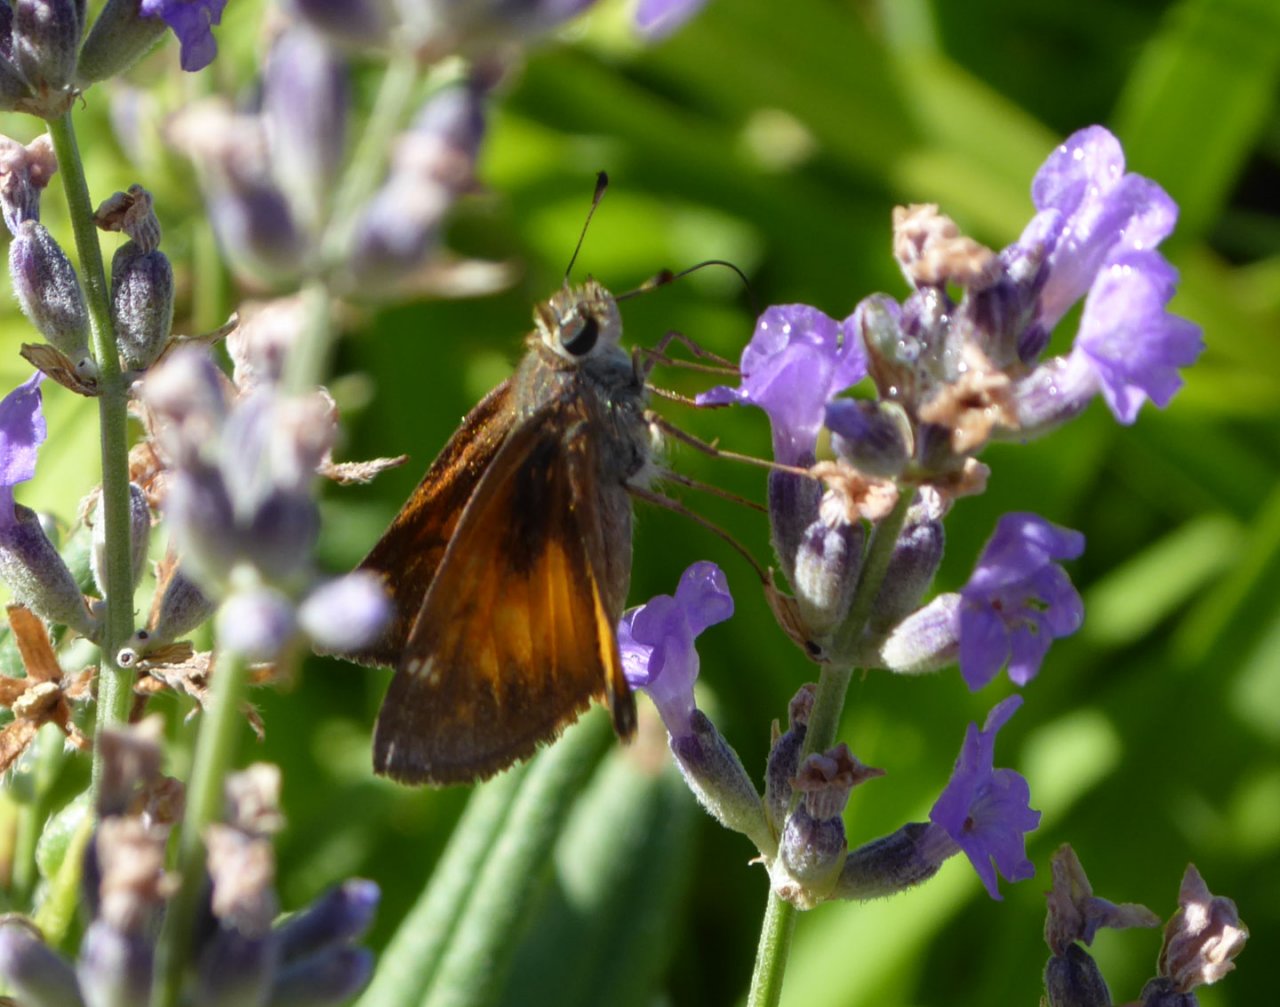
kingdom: Animalia
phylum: Arthropoda
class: Insecta
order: Lepidoptera
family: Hesperiidae
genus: Lon
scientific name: Lon taxiles
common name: Taxiles Skipper
